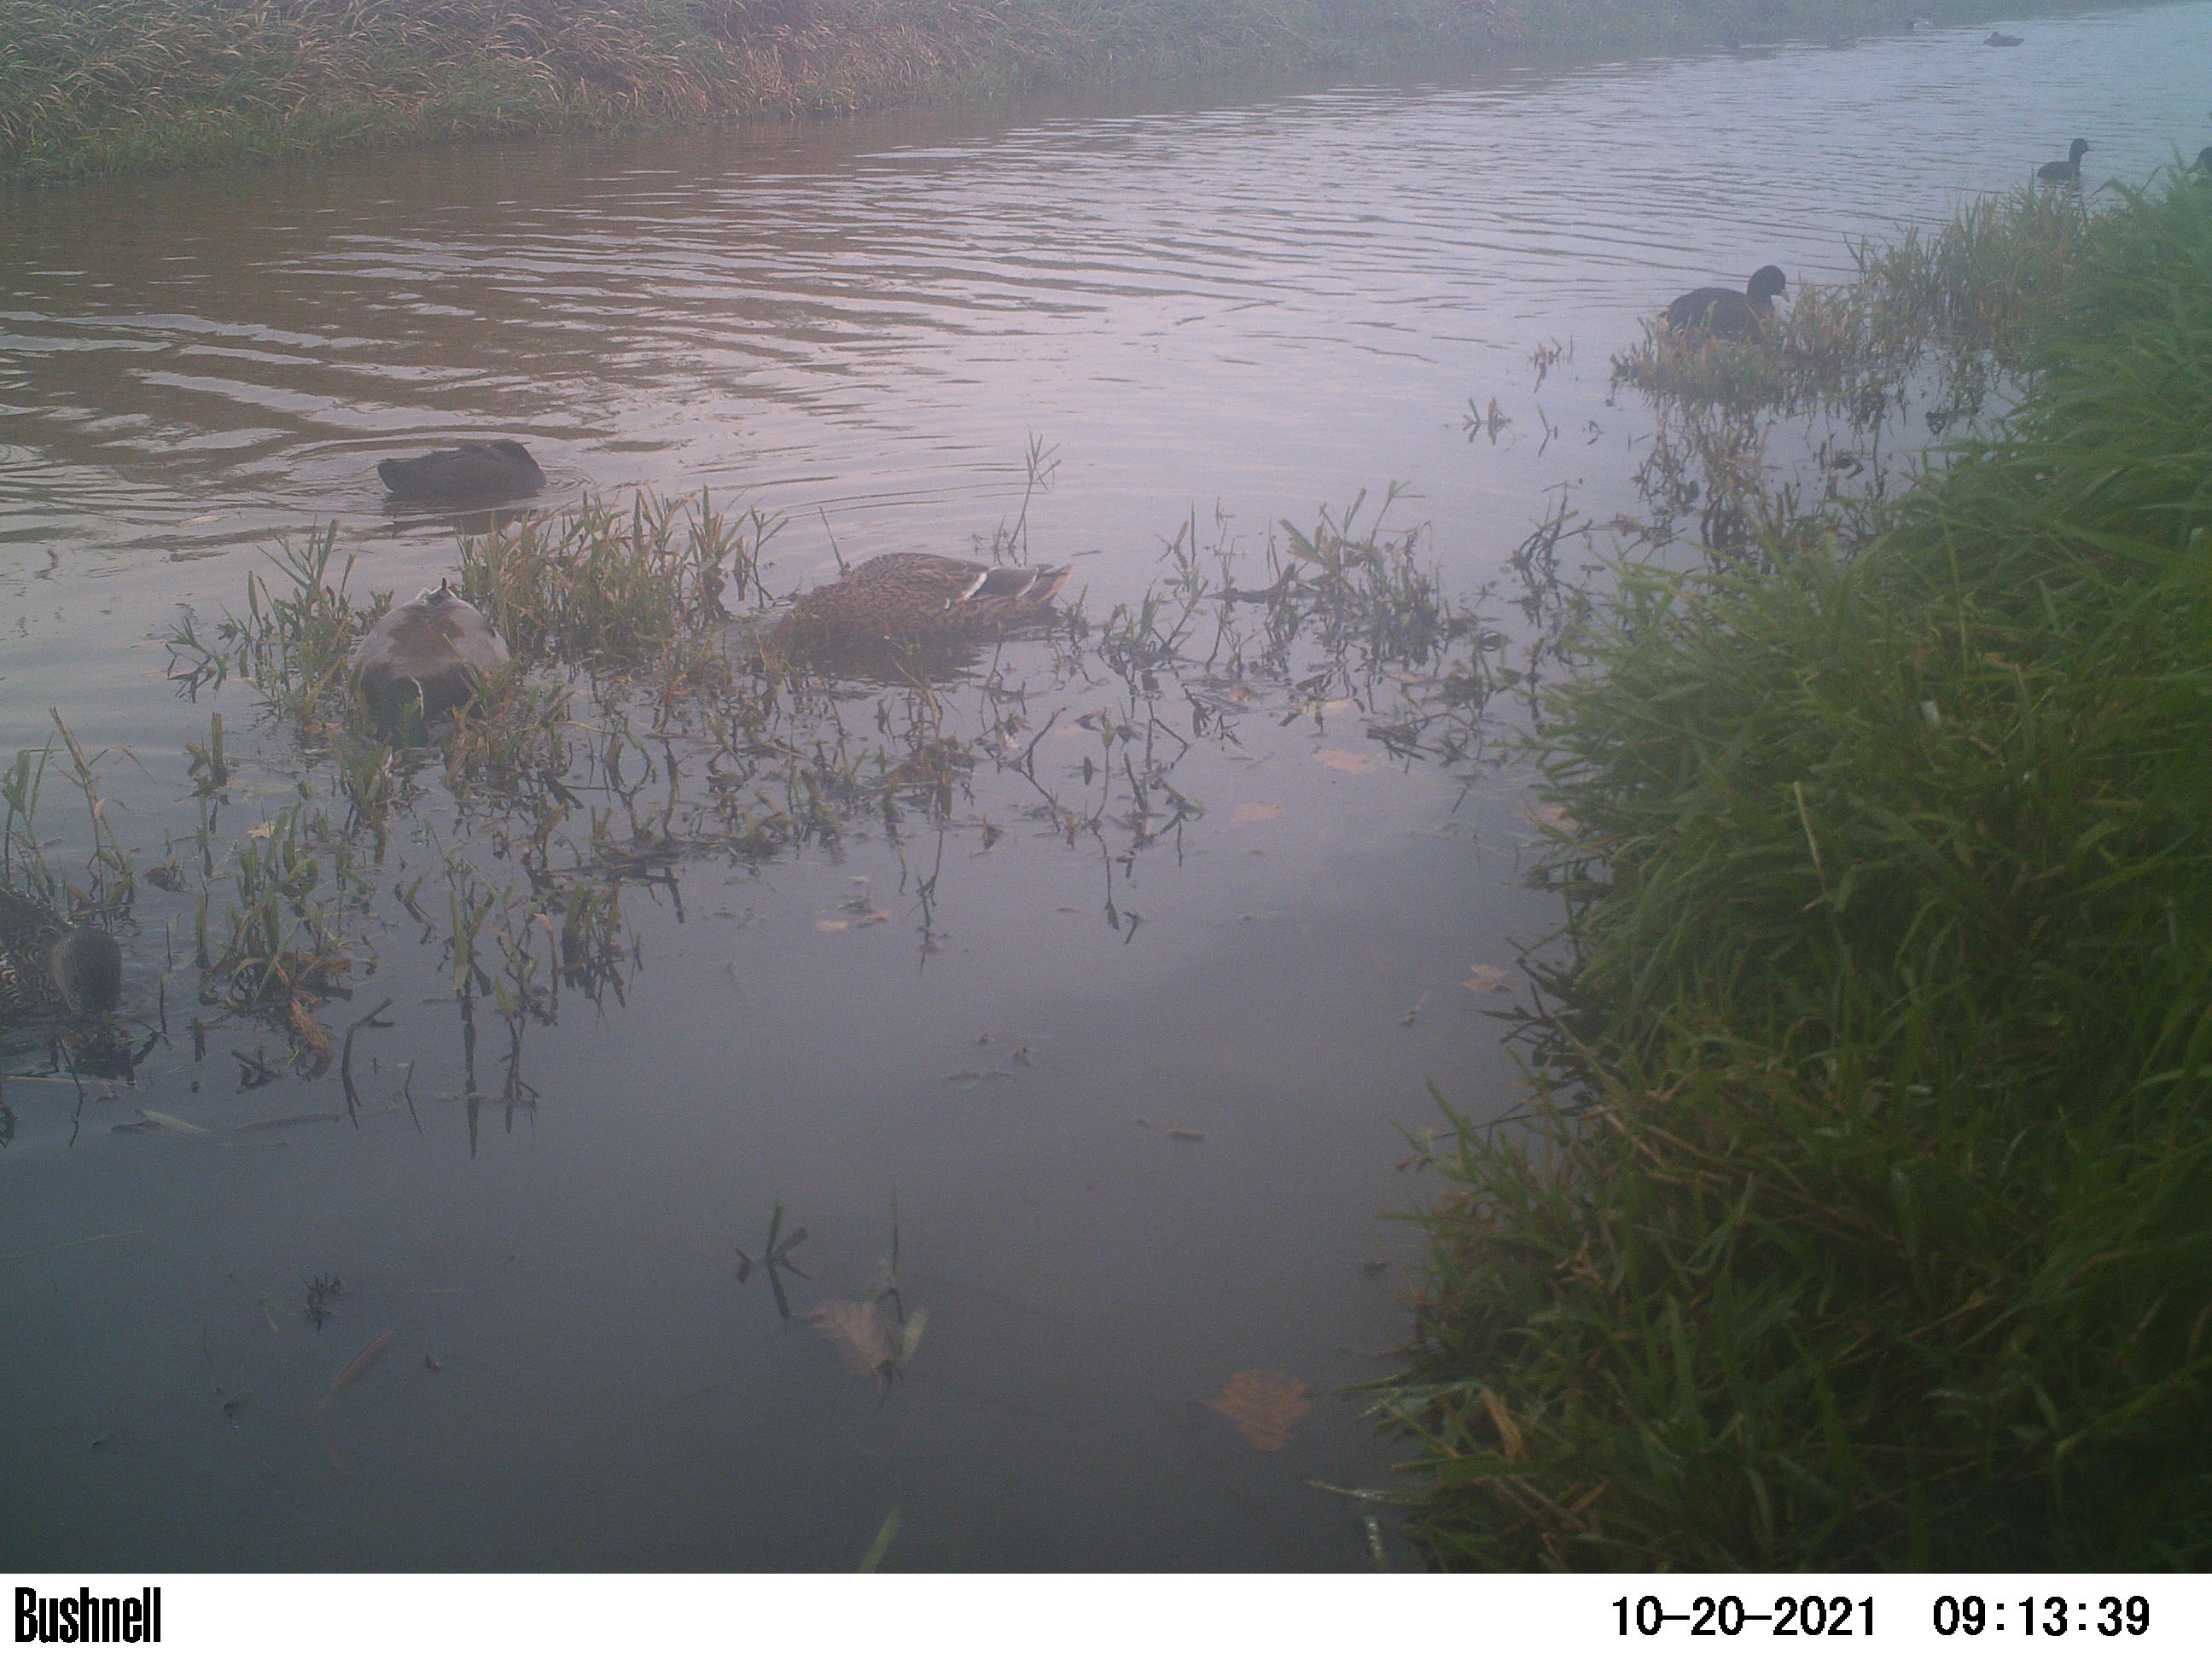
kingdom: Animalia
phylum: Chordata
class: Aves
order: Gruiformes
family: Rallidae
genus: Fulica
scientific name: Fulica atra
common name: Eurasian coot
